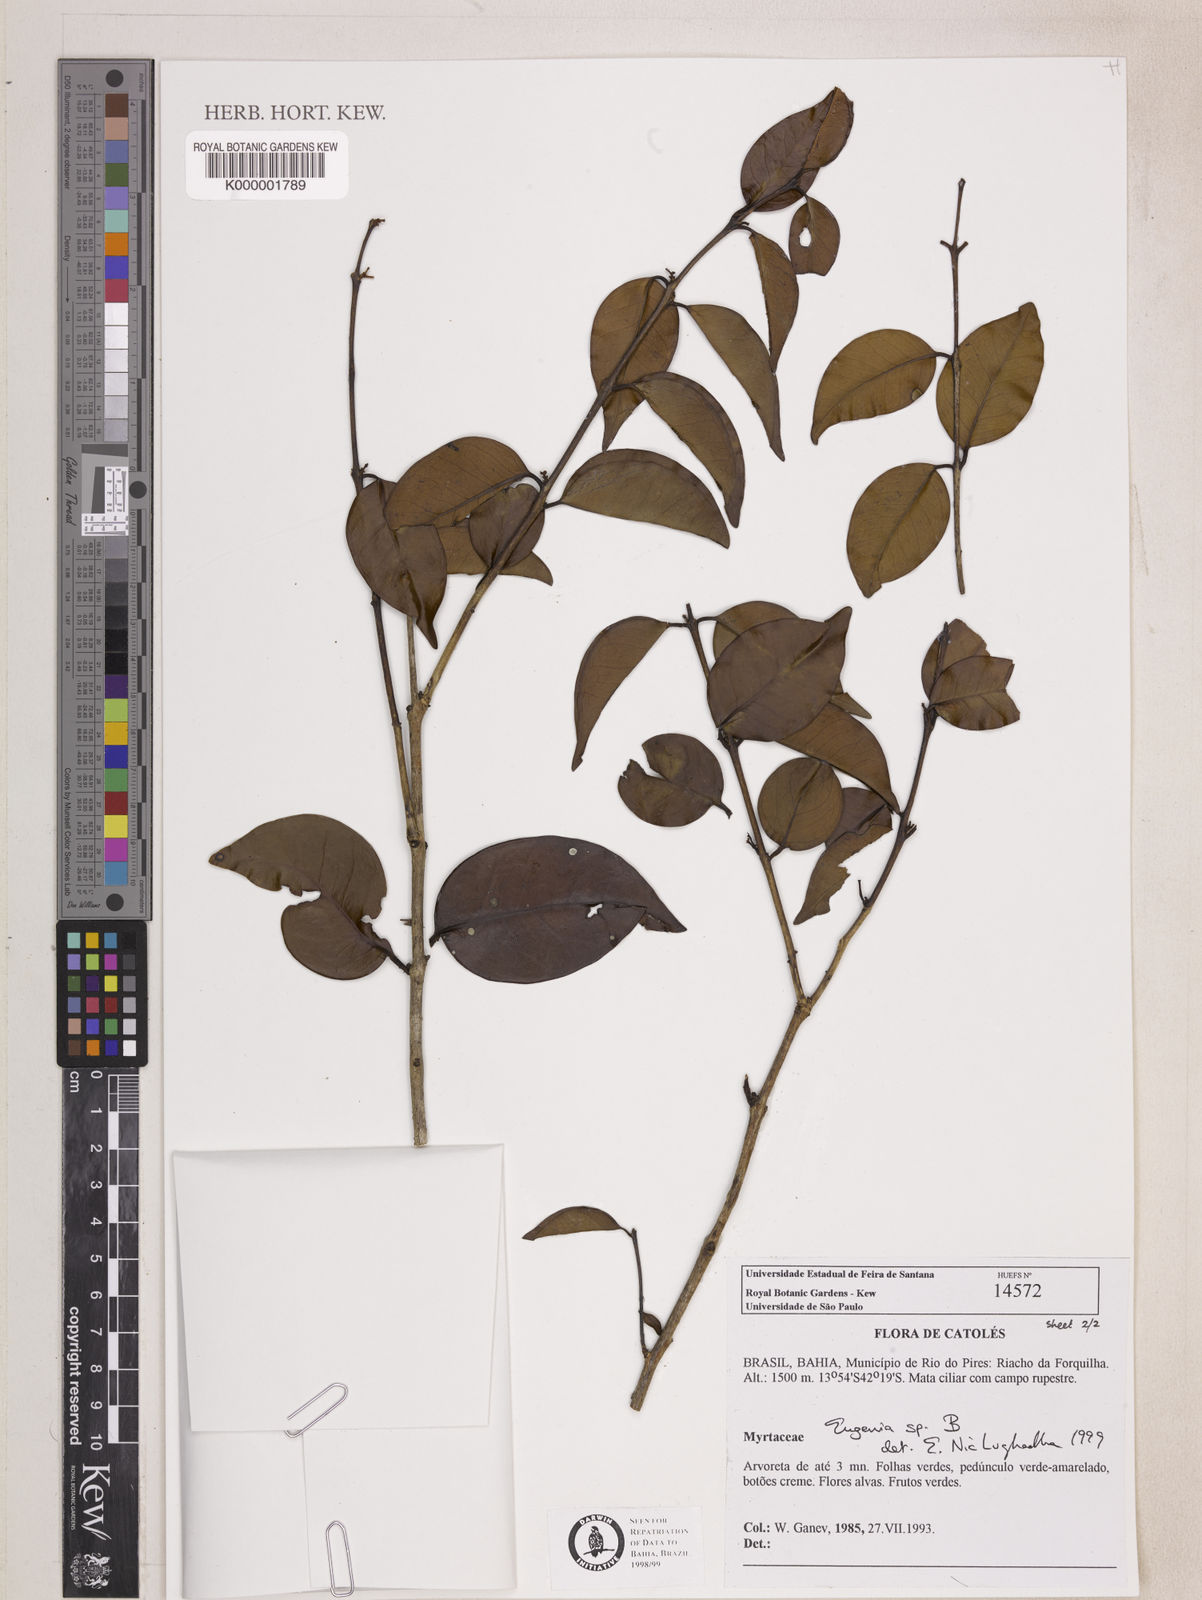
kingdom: Plantae
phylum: Tracheophyta
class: Magnoliopsida
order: Myrtales
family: Myrtaceae
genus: Eugenia
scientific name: Eugenia
